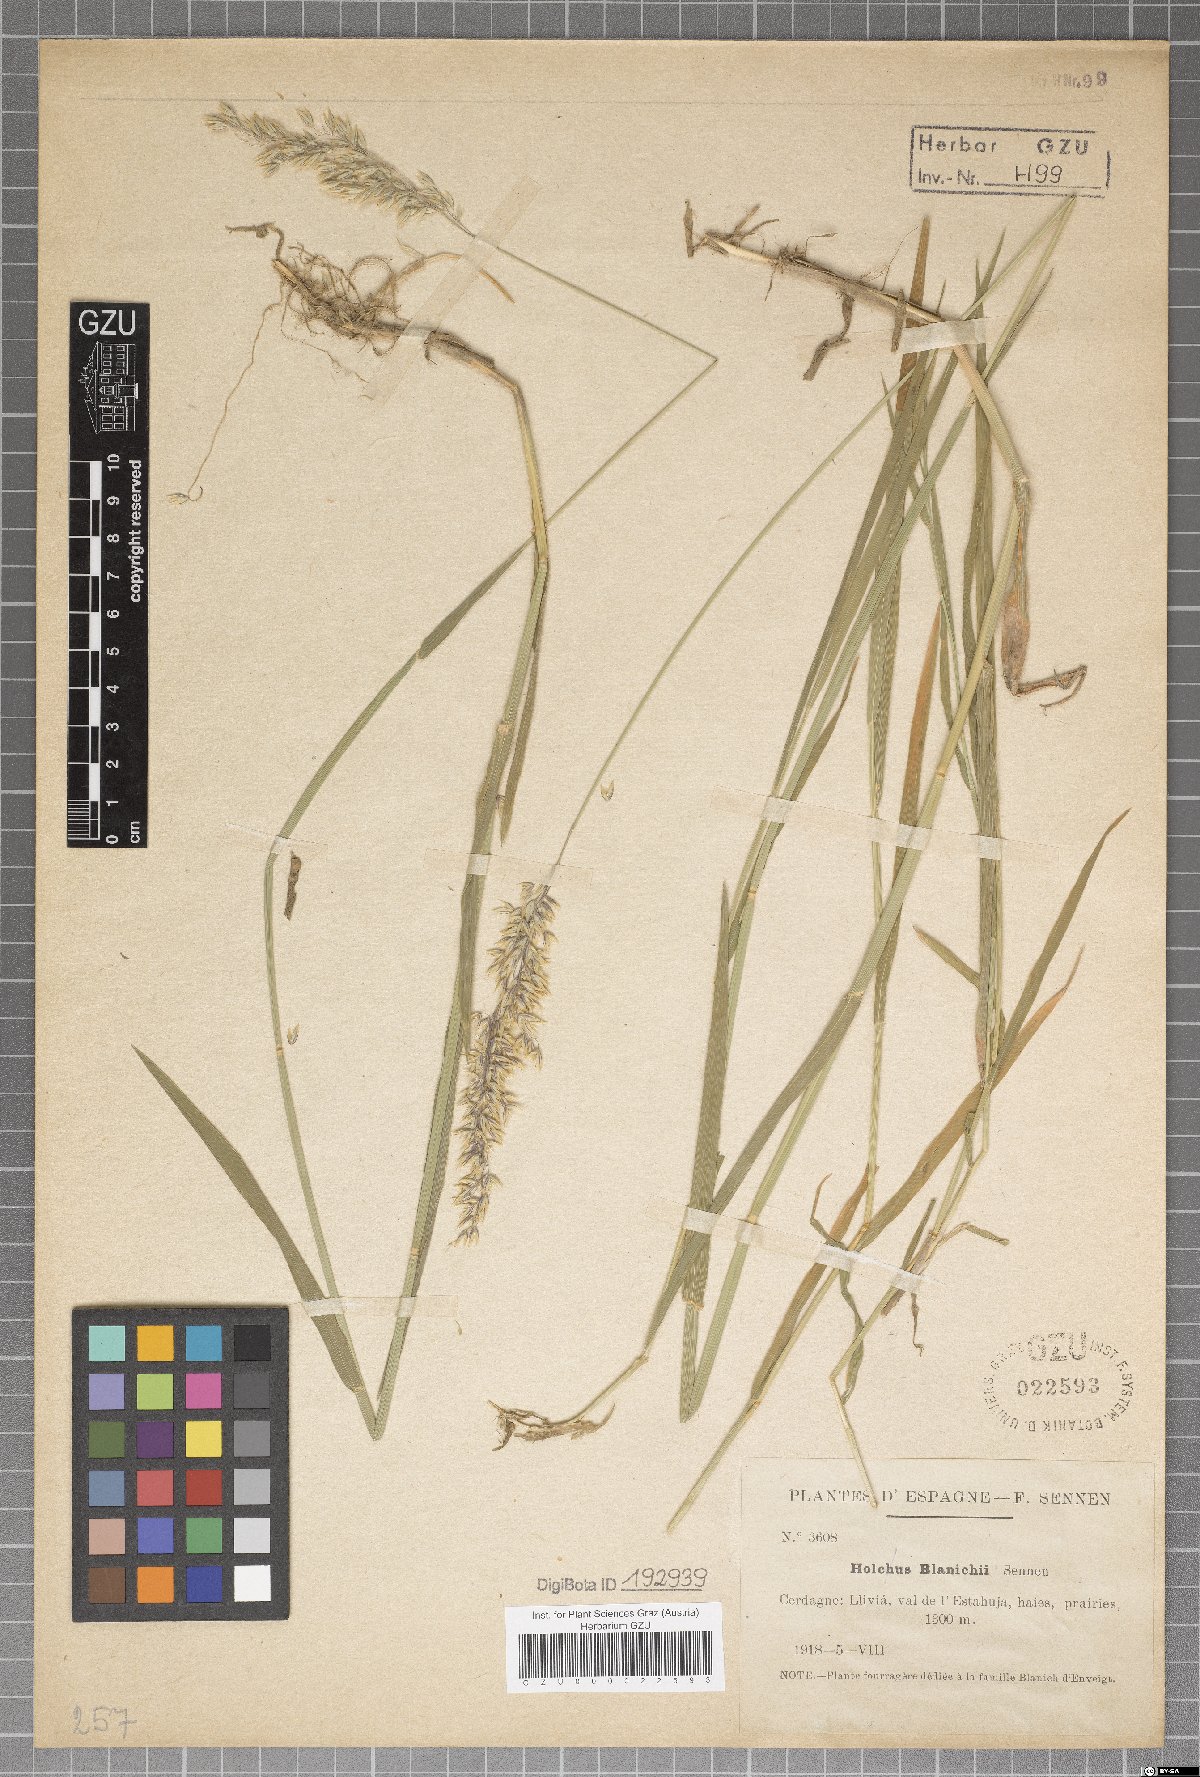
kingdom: Plantae
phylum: Tracheophyta
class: Liliopsida
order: Poales
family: Poaceae
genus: Holcus
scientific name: Holcus blanichii
